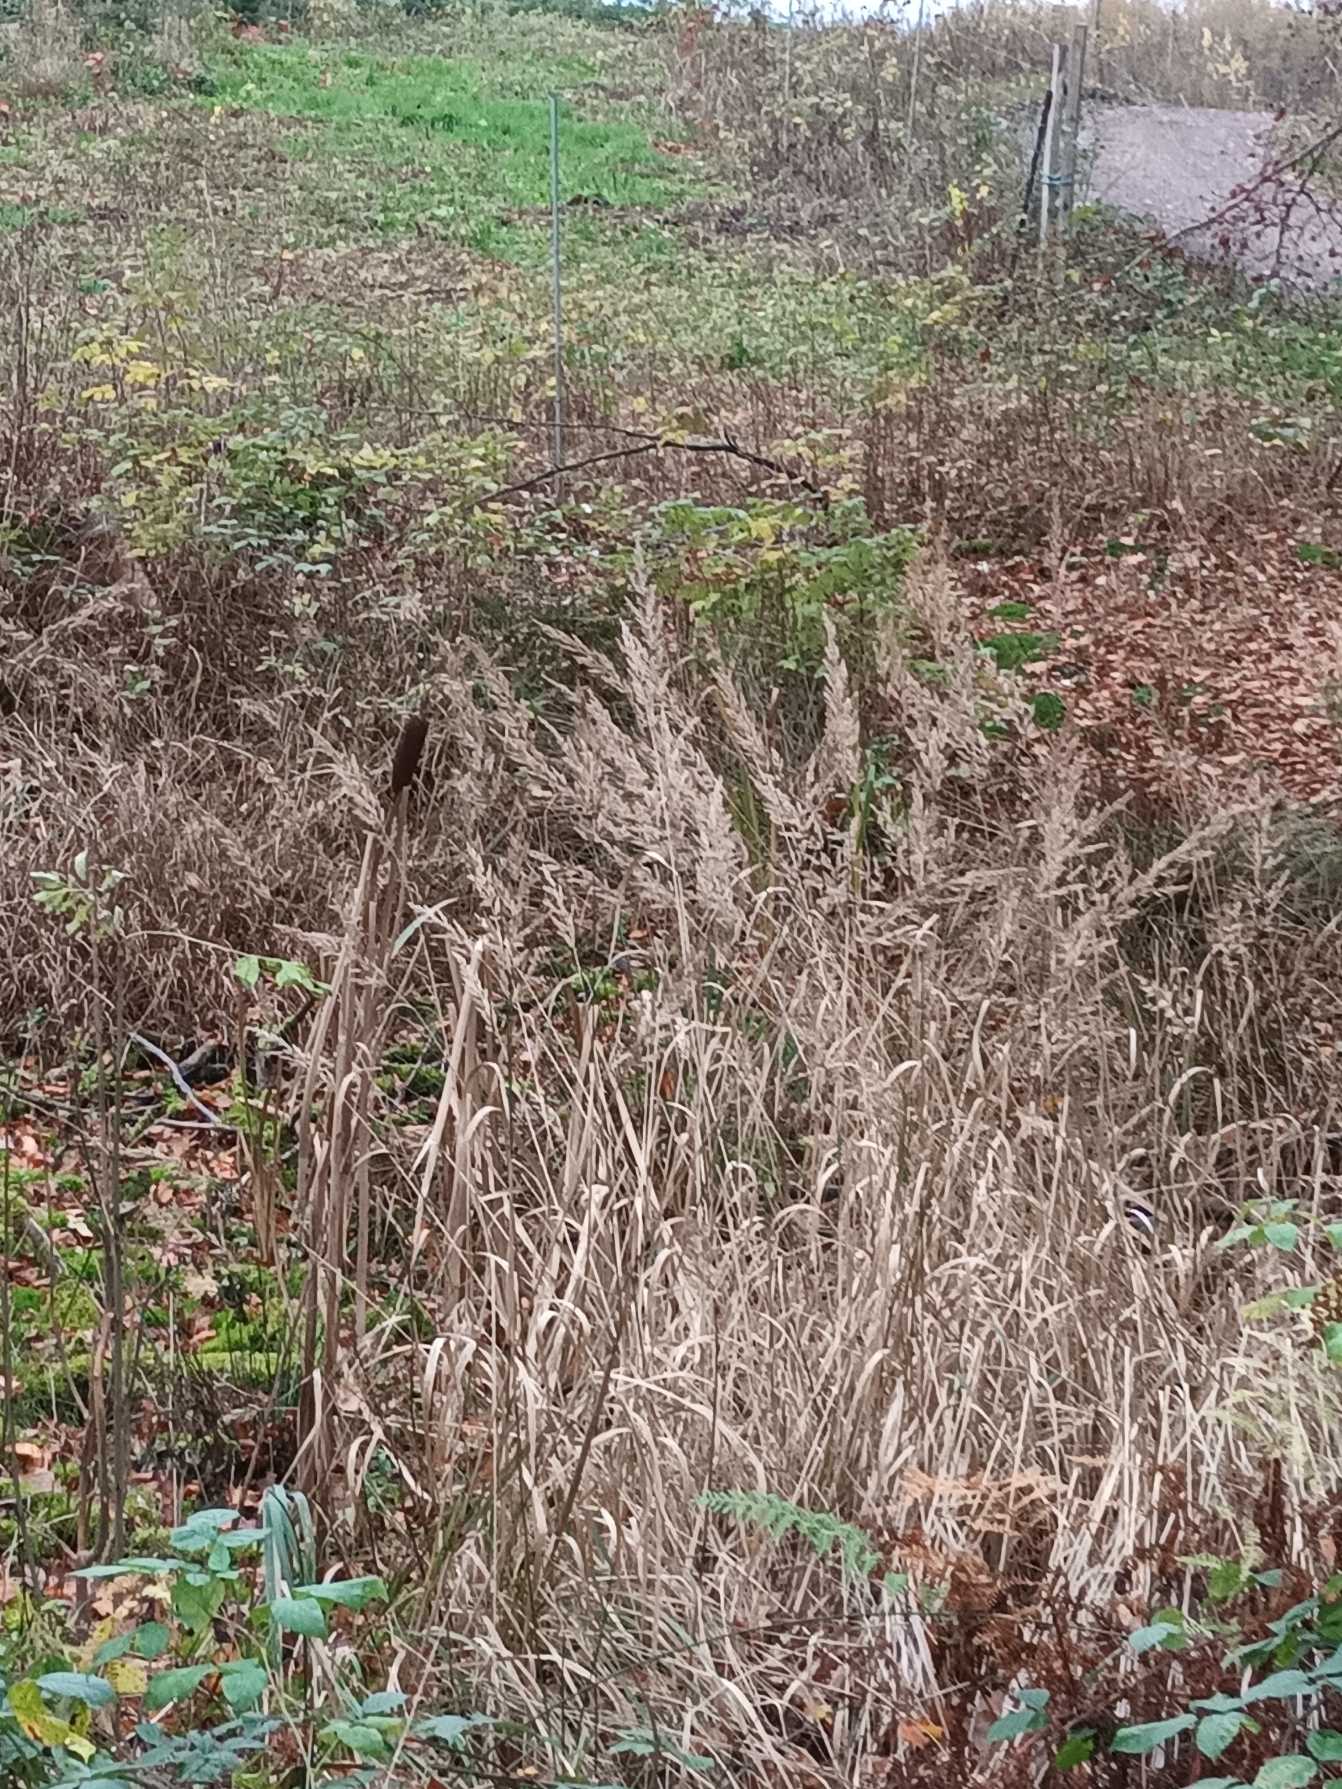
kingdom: Plantae
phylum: Tracheophyta
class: Liliopsida
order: Poales
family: Poaceae
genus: Phalaris
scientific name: Phalaris arundinacea
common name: Rørgræs
